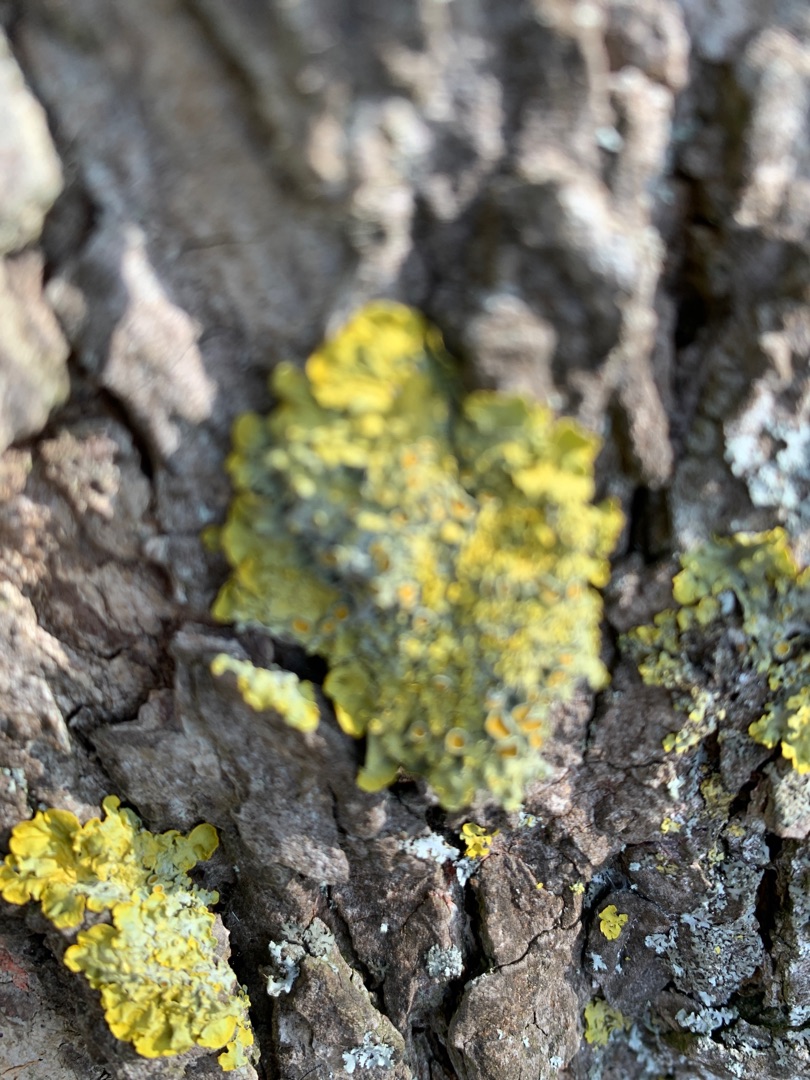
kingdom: Fungi
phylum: Ascomycota
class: Lecanoromycetes
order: Teloschistales
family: Teloschistaceae
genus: Xanthoria
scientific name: Xanthoria parietina
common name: Almindelig væggelav
